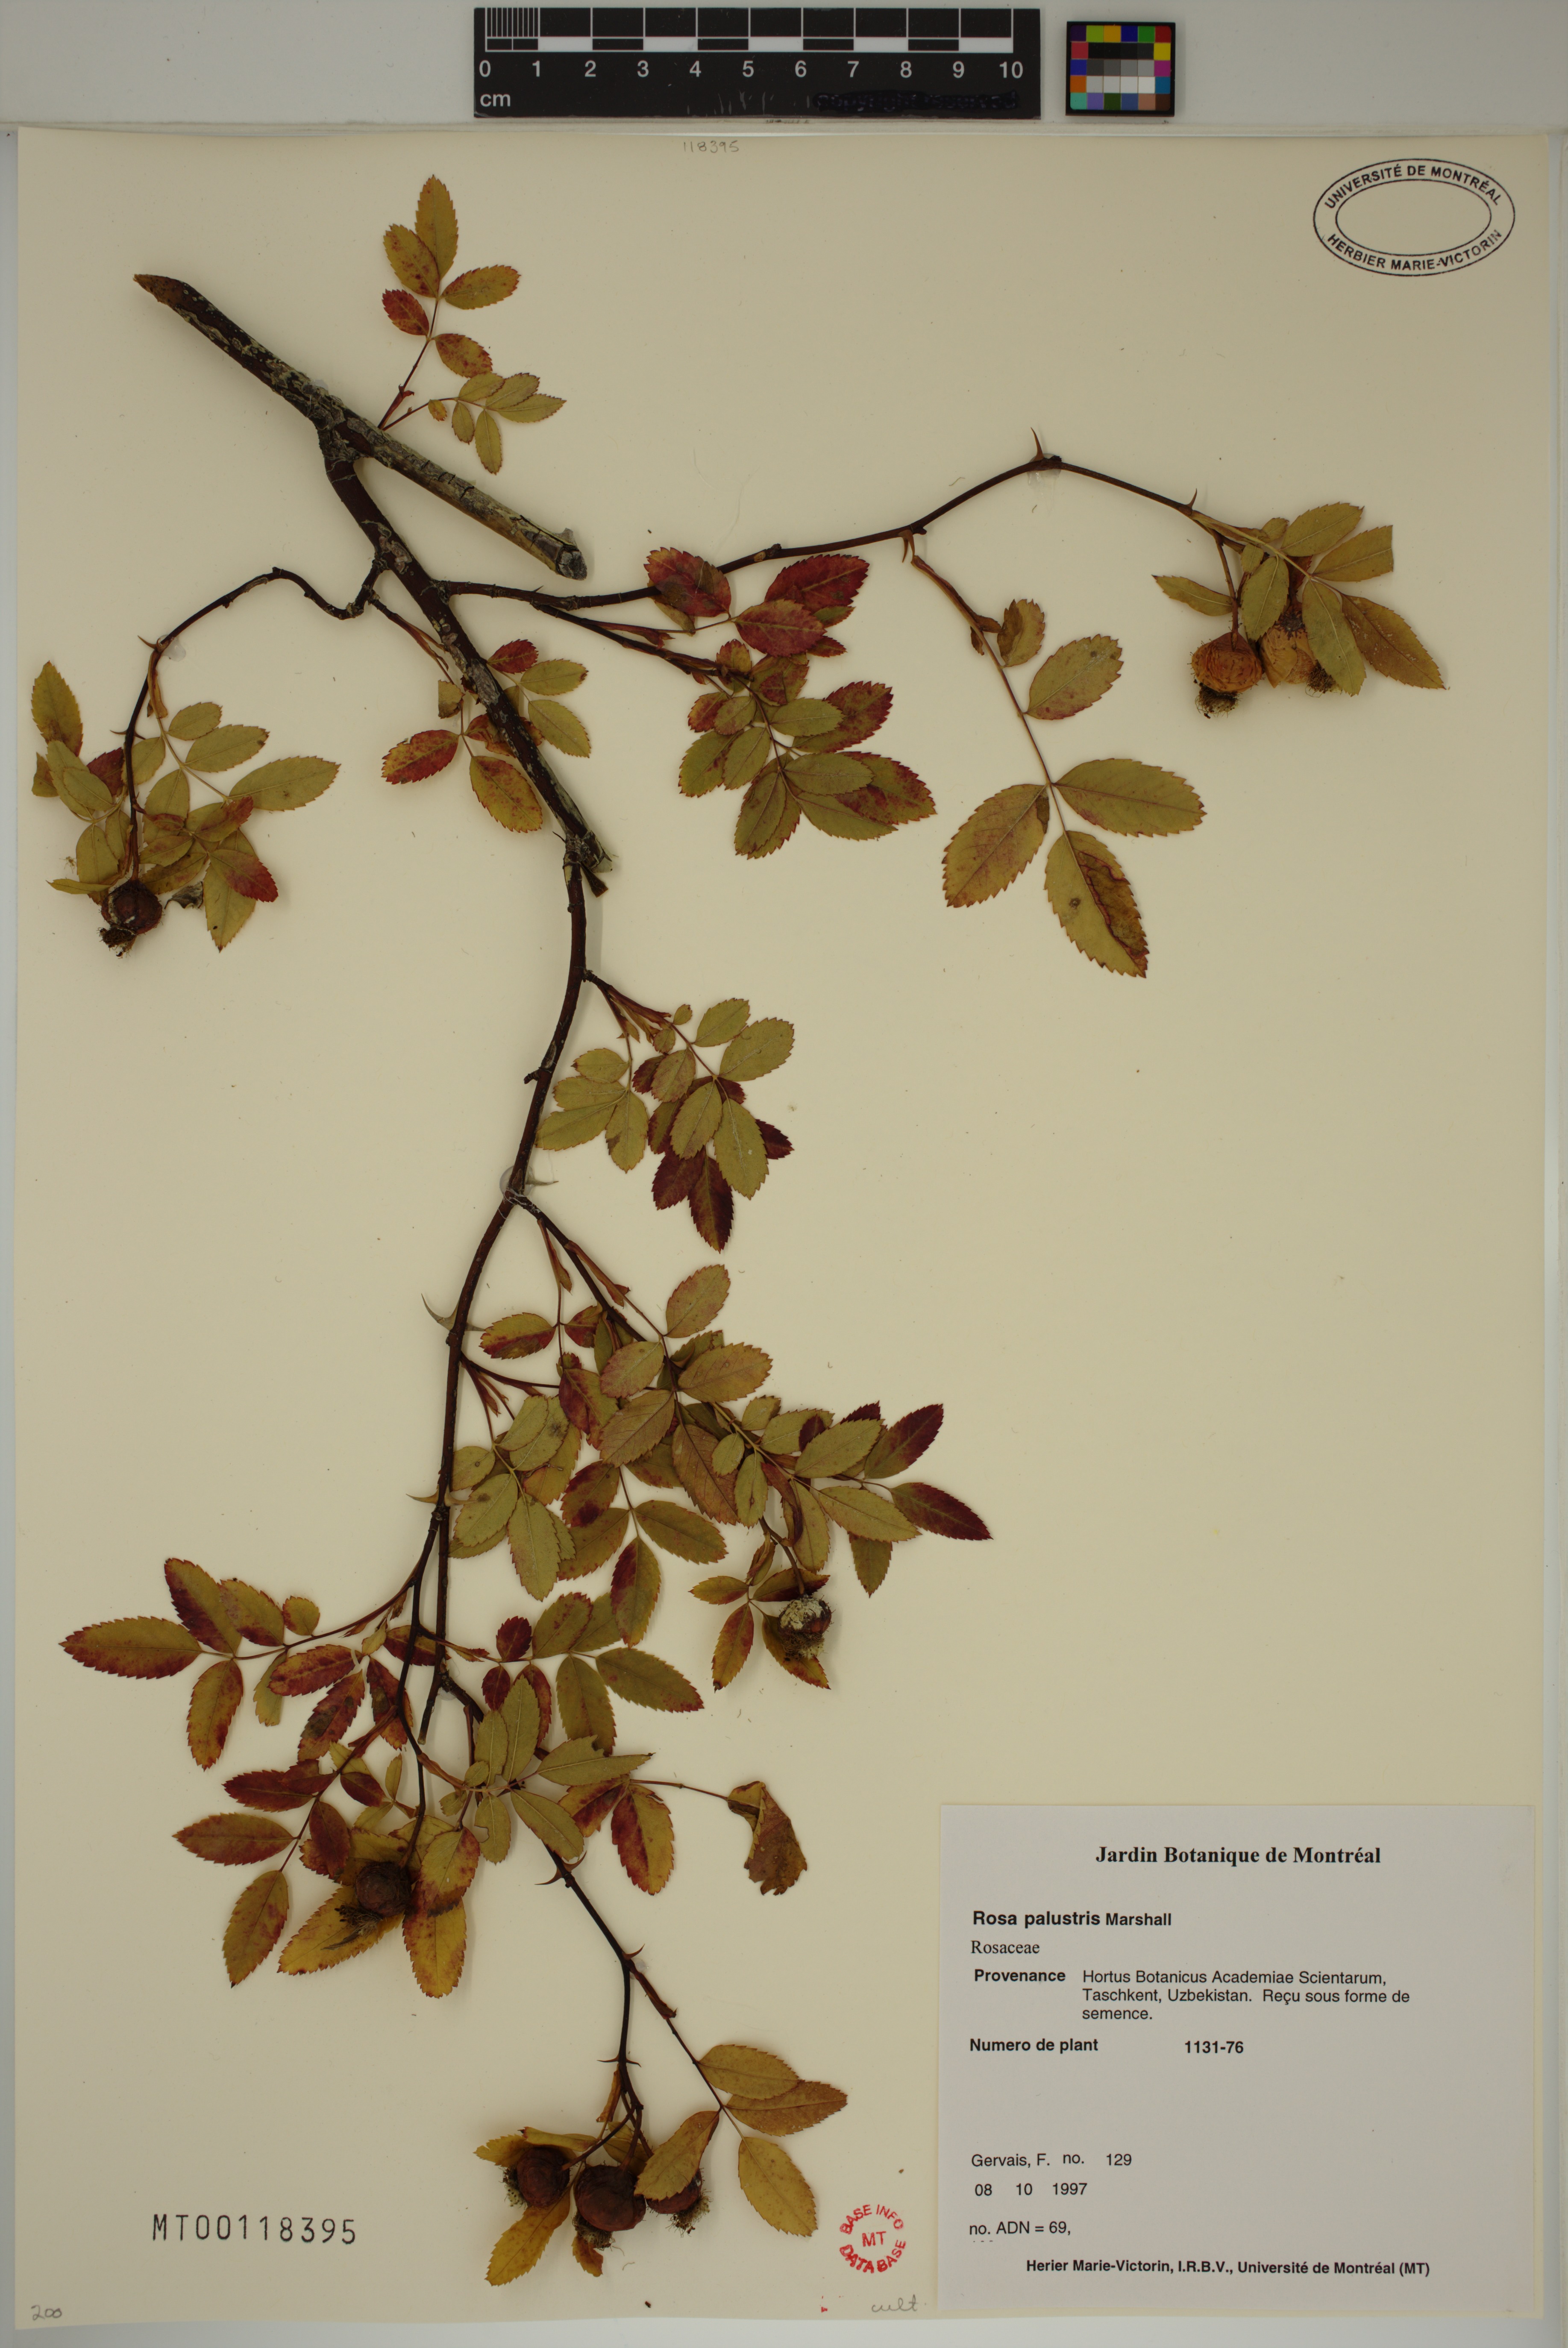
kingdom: Plantae
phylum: Tracheophyta
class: Magnoliopsida
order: Rosales
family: Rosaceae
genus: Rosa
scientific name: Rosa palustris
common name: Swamp rose
